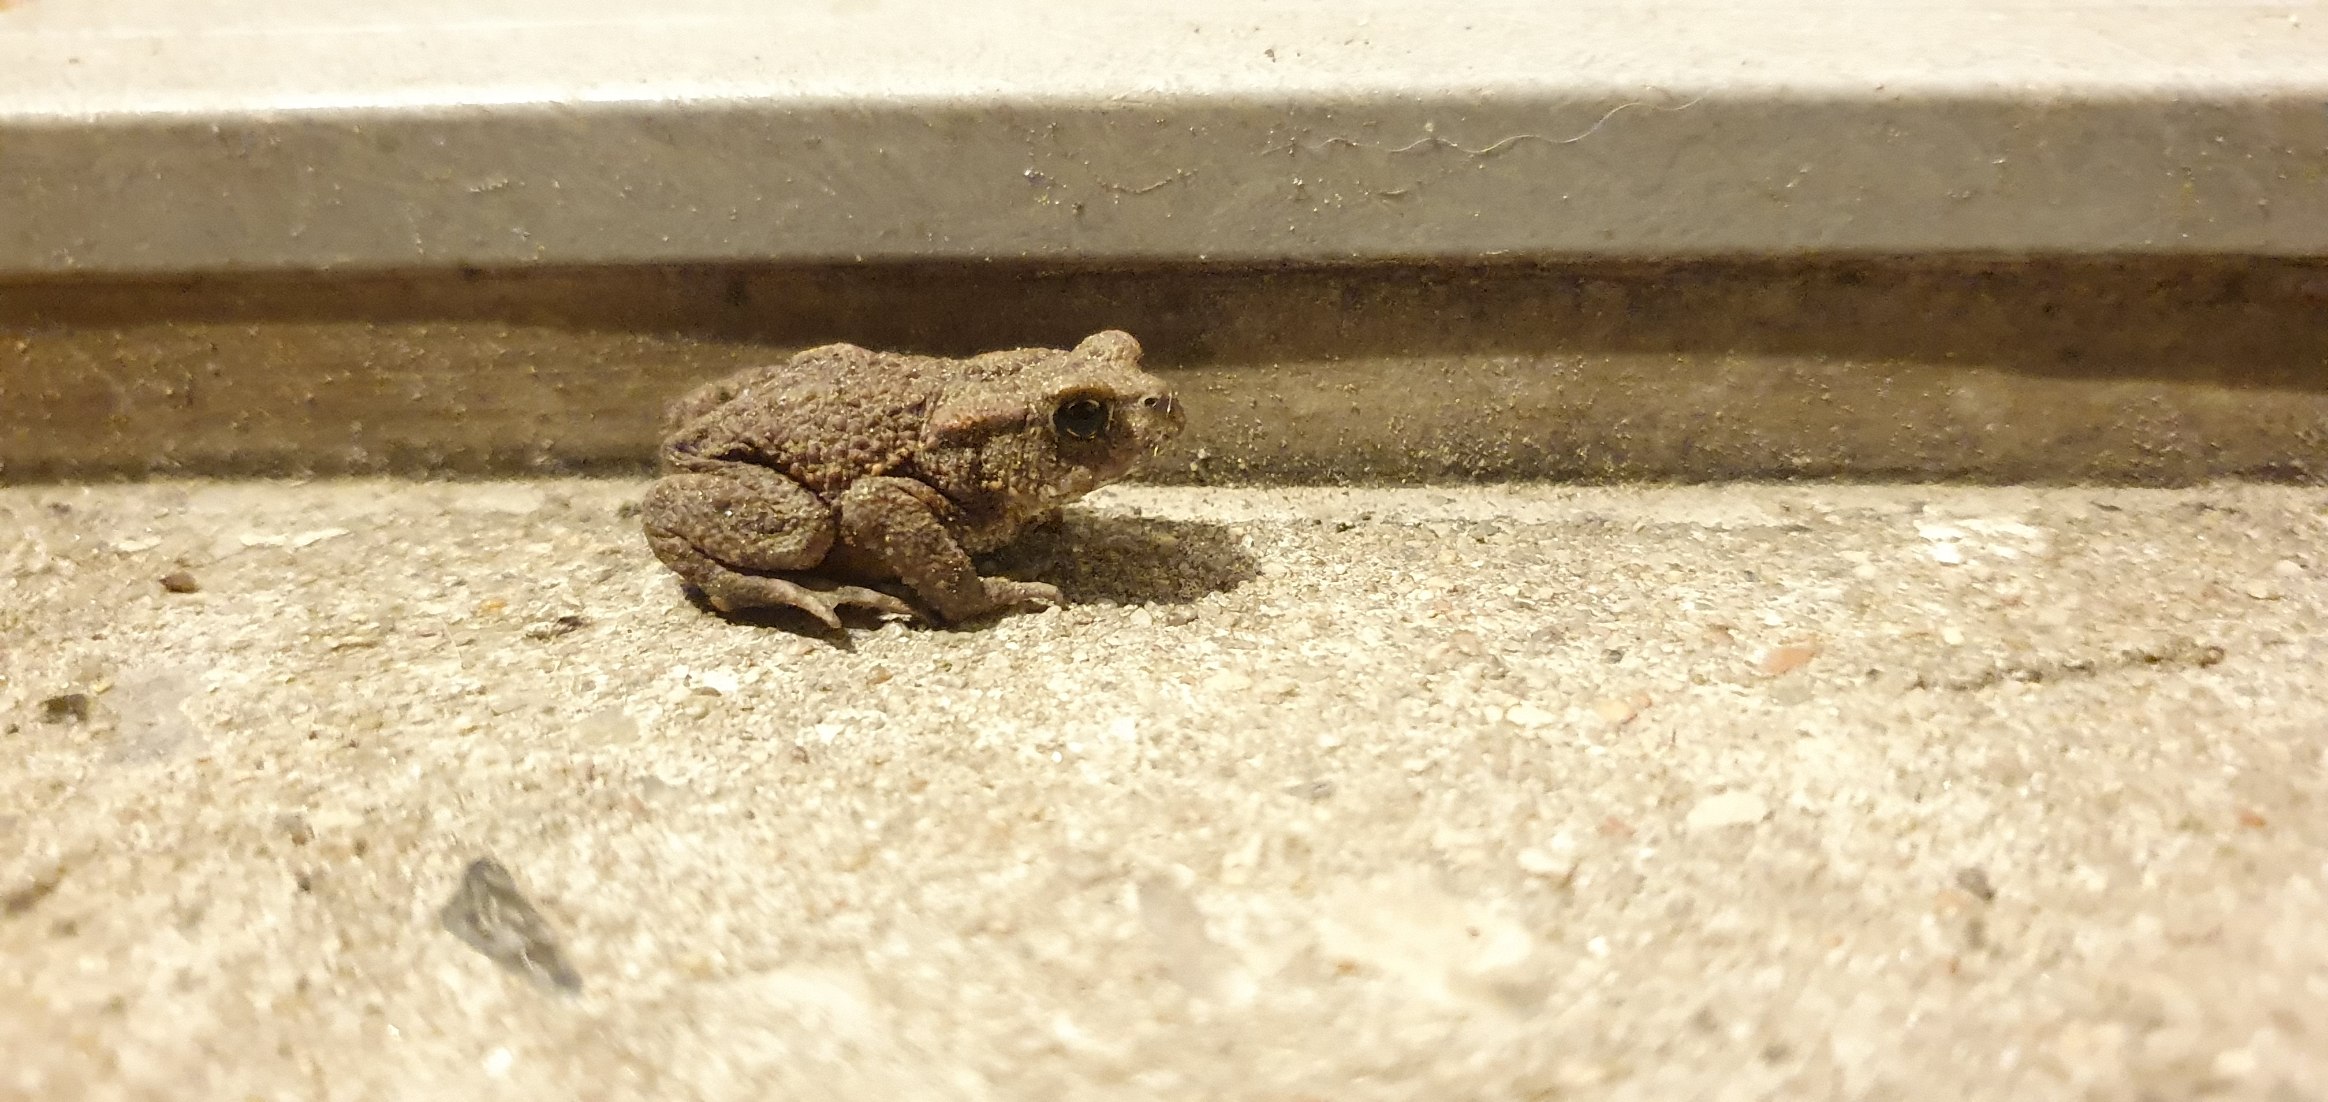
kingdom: Animalia
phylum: Chordata
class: Amphibia
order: Anura
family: Bufonidae
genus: Bufo
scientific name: Bufo bufo
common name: Skrubtudse
